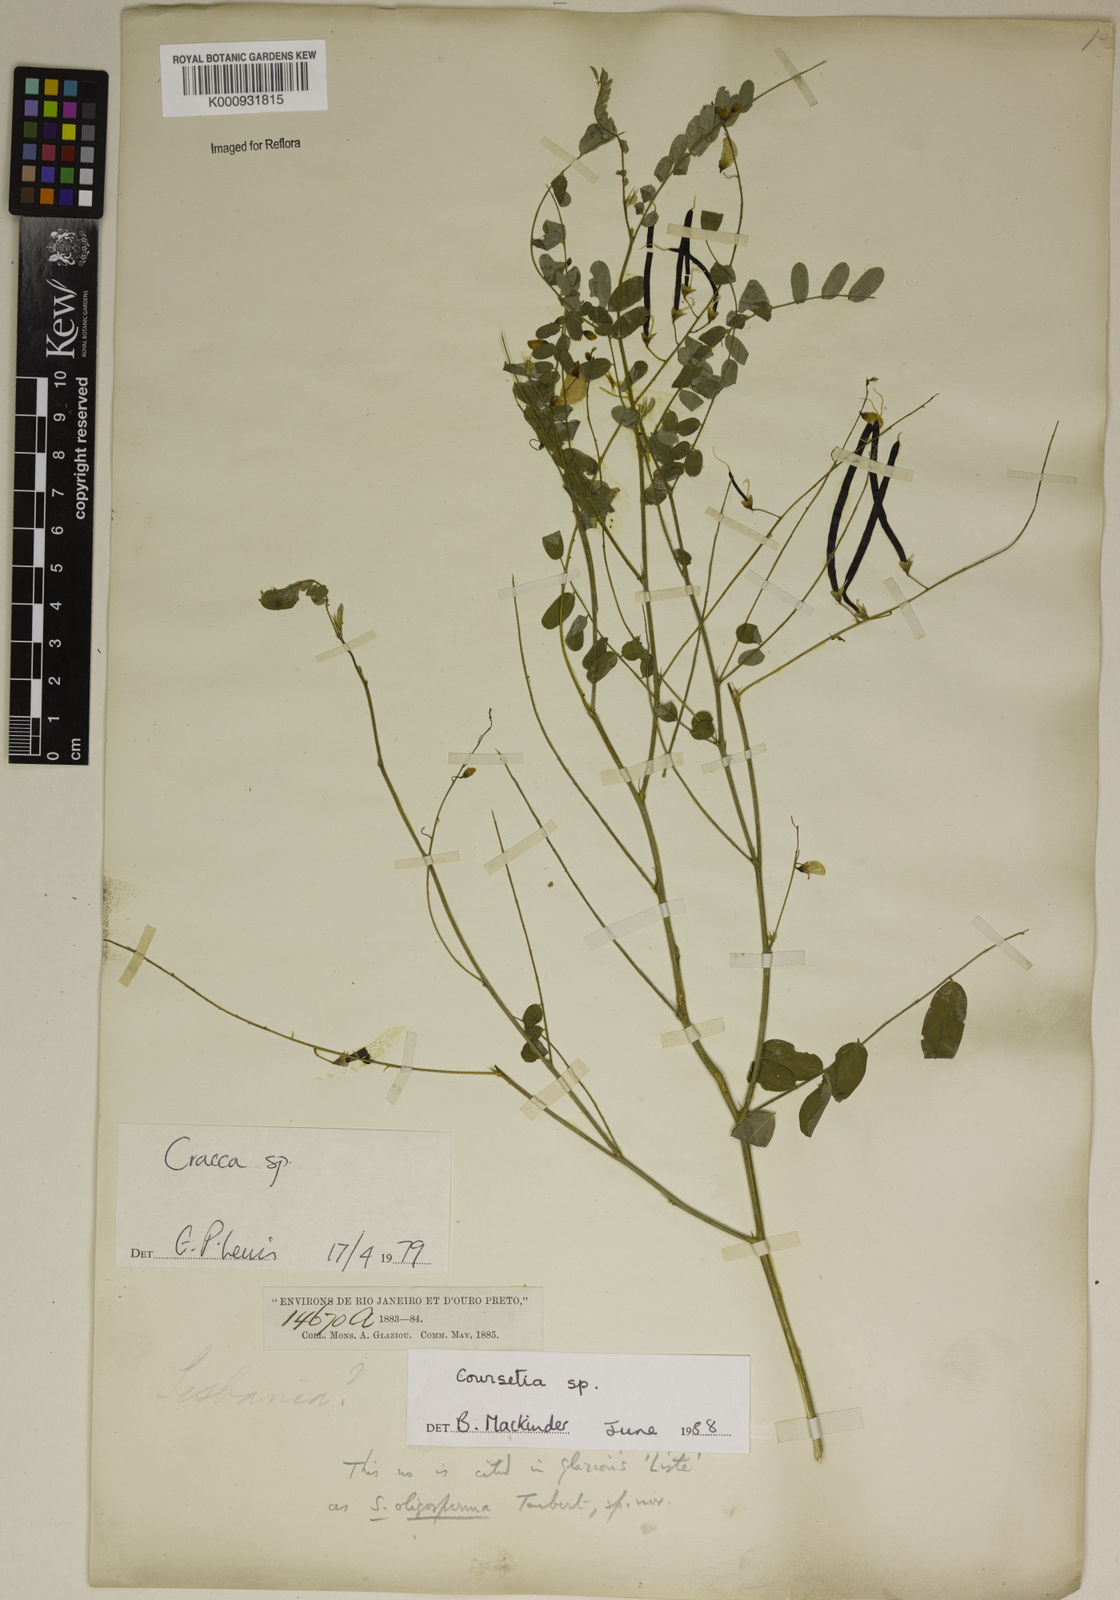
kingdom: Plantae
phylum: Tracheophyta
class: Magnoliopsida
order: Fabales
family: Fabaceae
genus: Coursetia
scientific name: Coursetia
